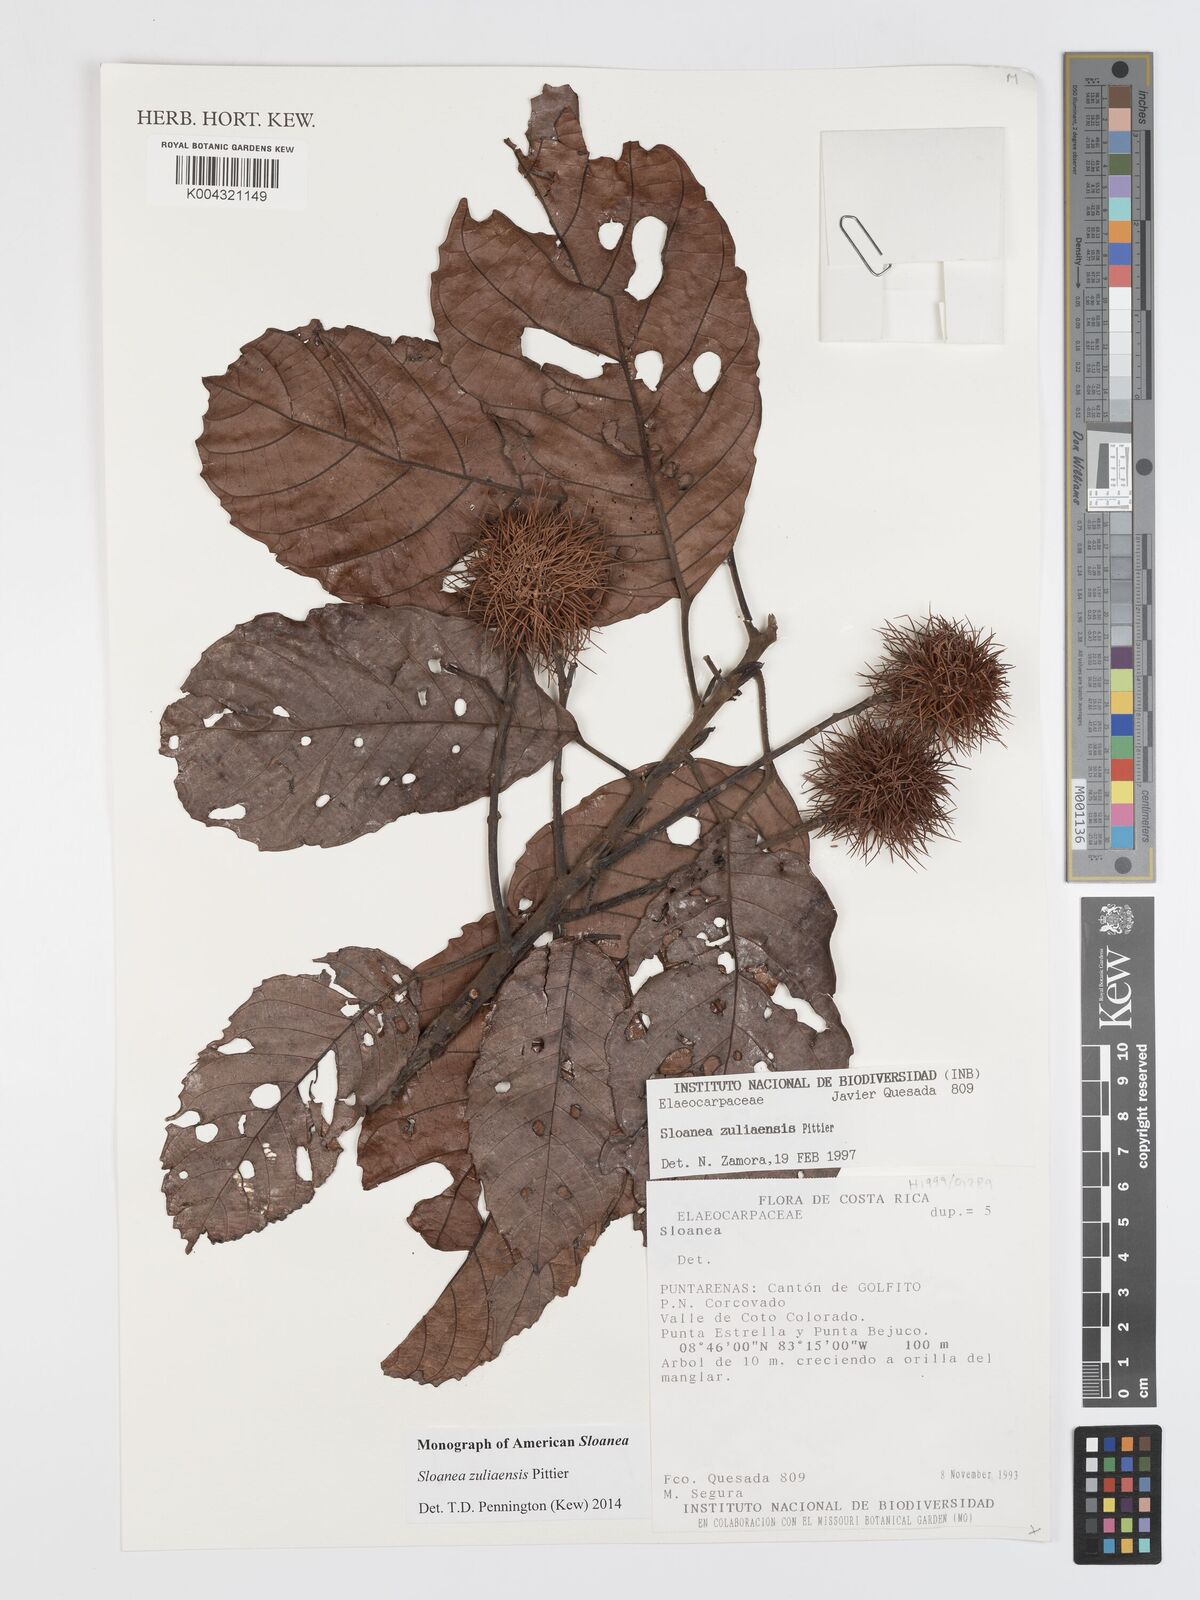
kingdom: Plantae
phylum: Tracheophyta
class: Magnoliopsida
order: Oxalidales
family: Elaeocarpaceae
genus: Sloanea
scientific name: Sloanea zuliaensis
